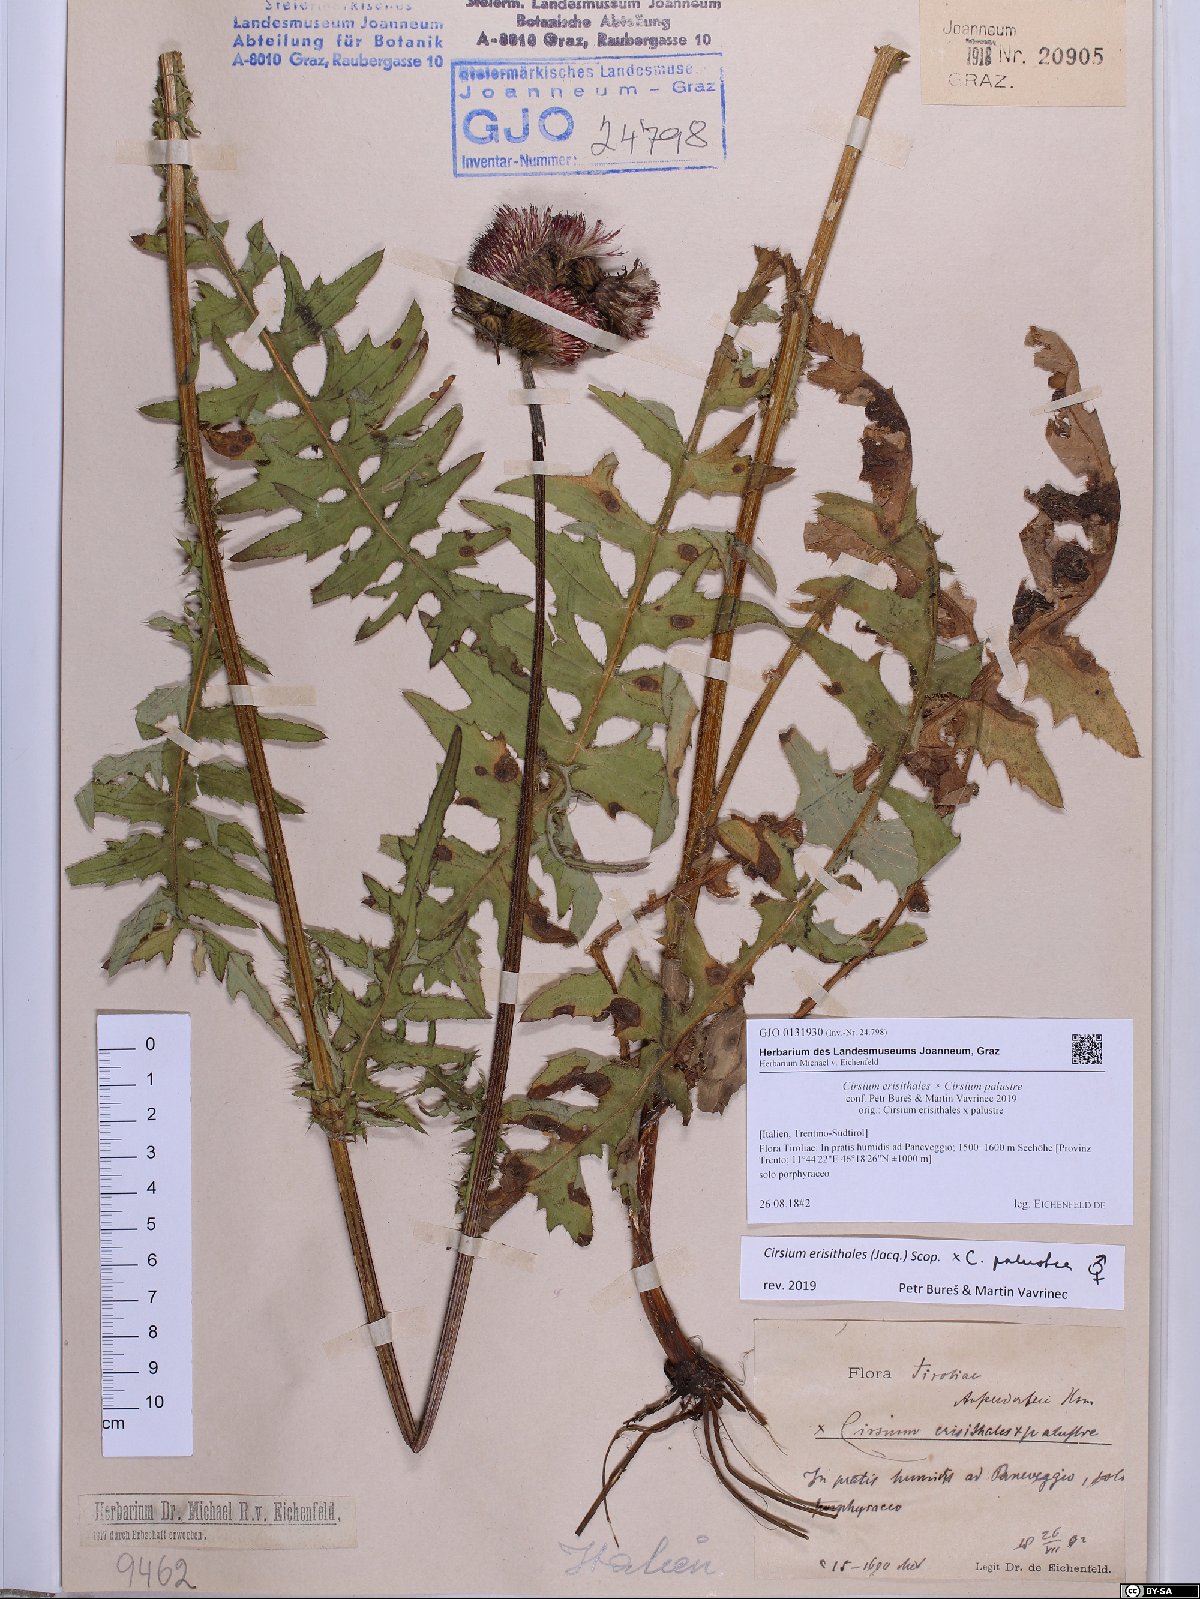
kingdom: Plantae
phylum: Tracheophyta
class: Magnoliopsida
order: Asterales
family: Asteraceae
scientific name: Asteraceae
